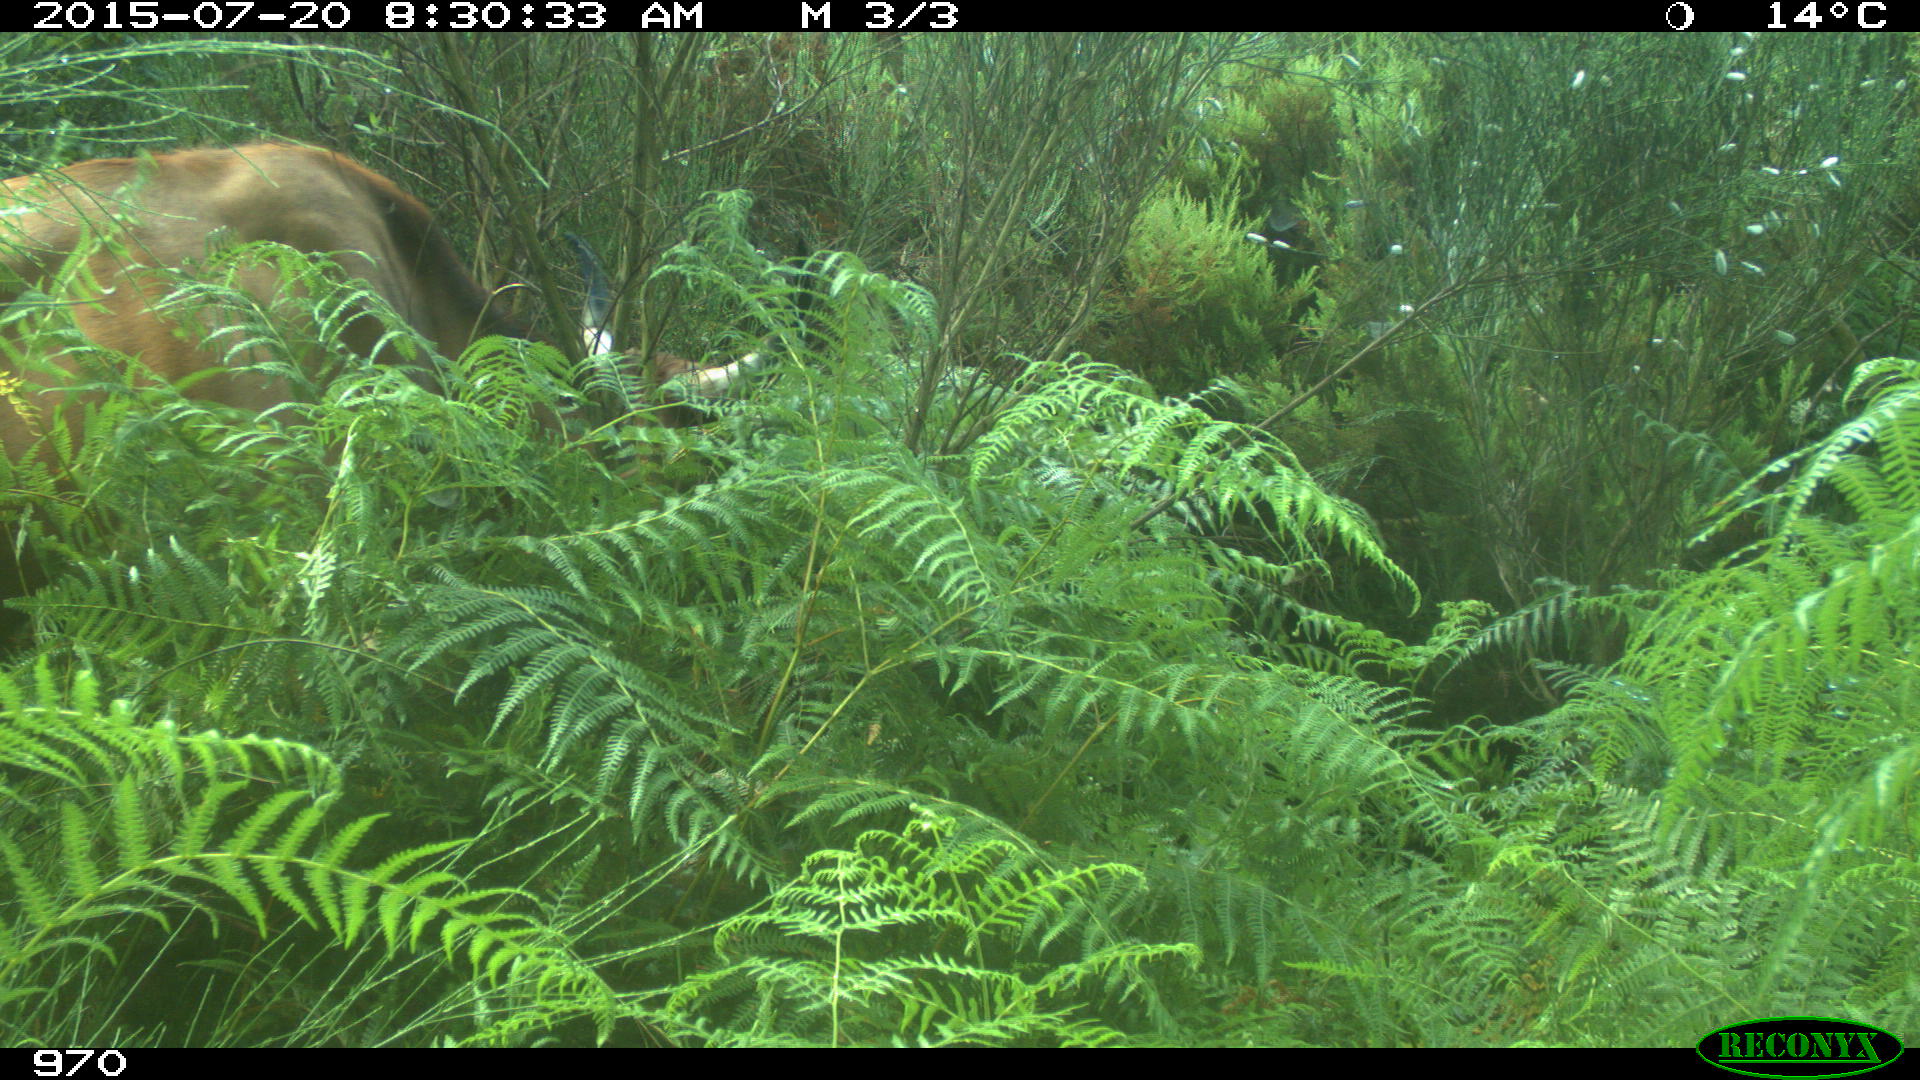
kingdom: Animalia
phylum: Chordata
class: Mammalia
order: Artiodactyla
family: Bovidae
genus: Bos
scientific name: Bos taurus
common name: Domesticated cattle
